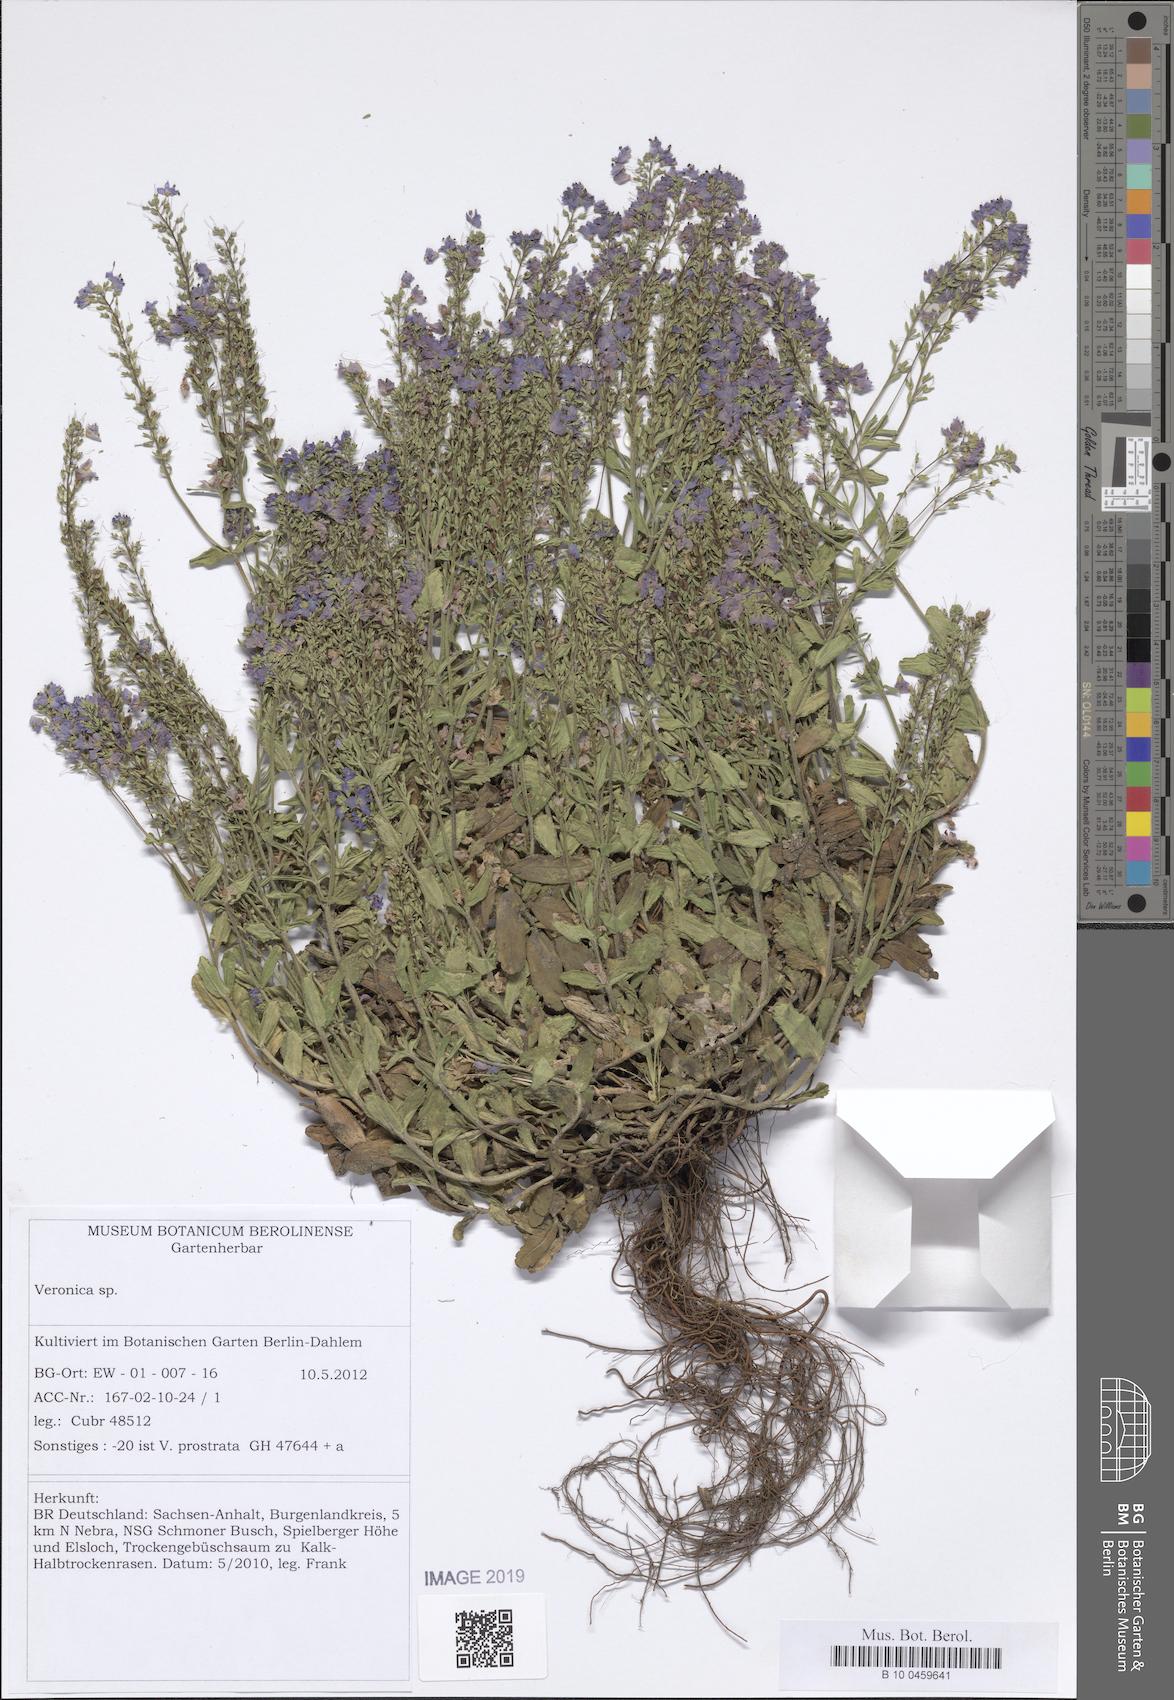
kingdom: Plantae
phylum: Tracheophyta
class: Magnoliopsida
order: Lamiales
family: Plantaginaceae
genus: Veronica
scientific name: Veronica prostrata
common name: Prostrate speedwell
